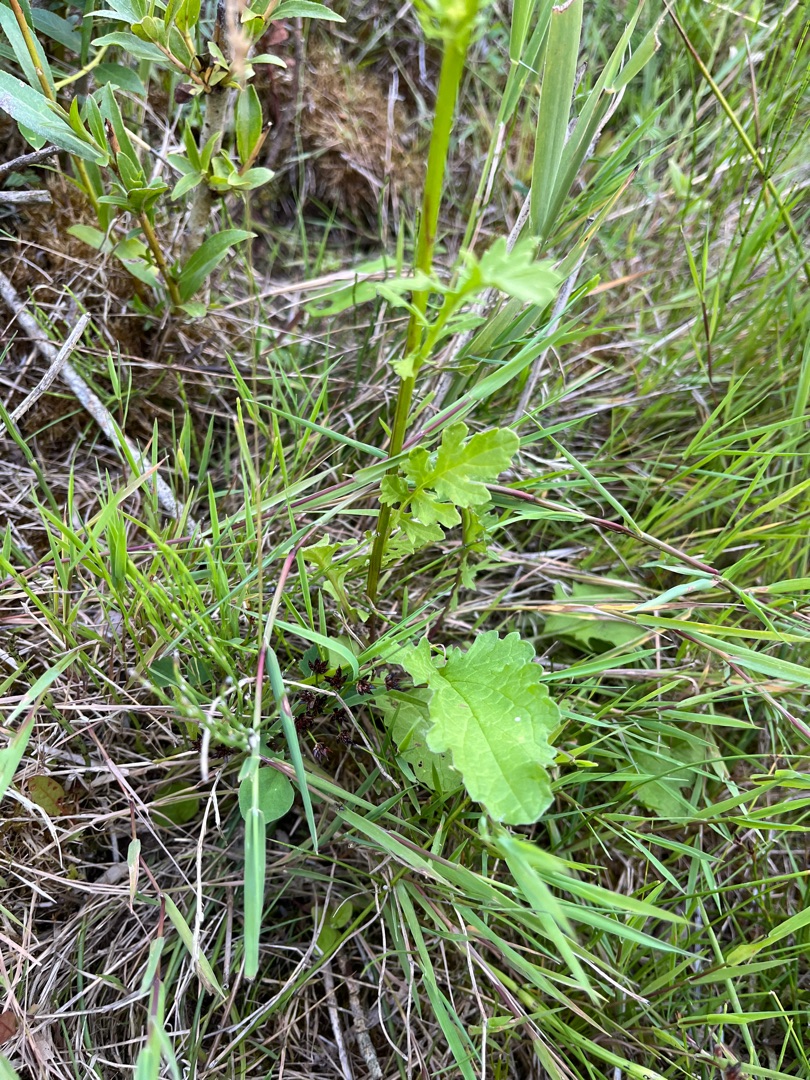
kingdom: Plantae
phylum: Tracheophyta
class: Magnoliopsida
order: Asterales
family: Asteraceae
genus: Jacobaea
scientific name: Jacobaea aquatica
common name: Vand-brandbæger
